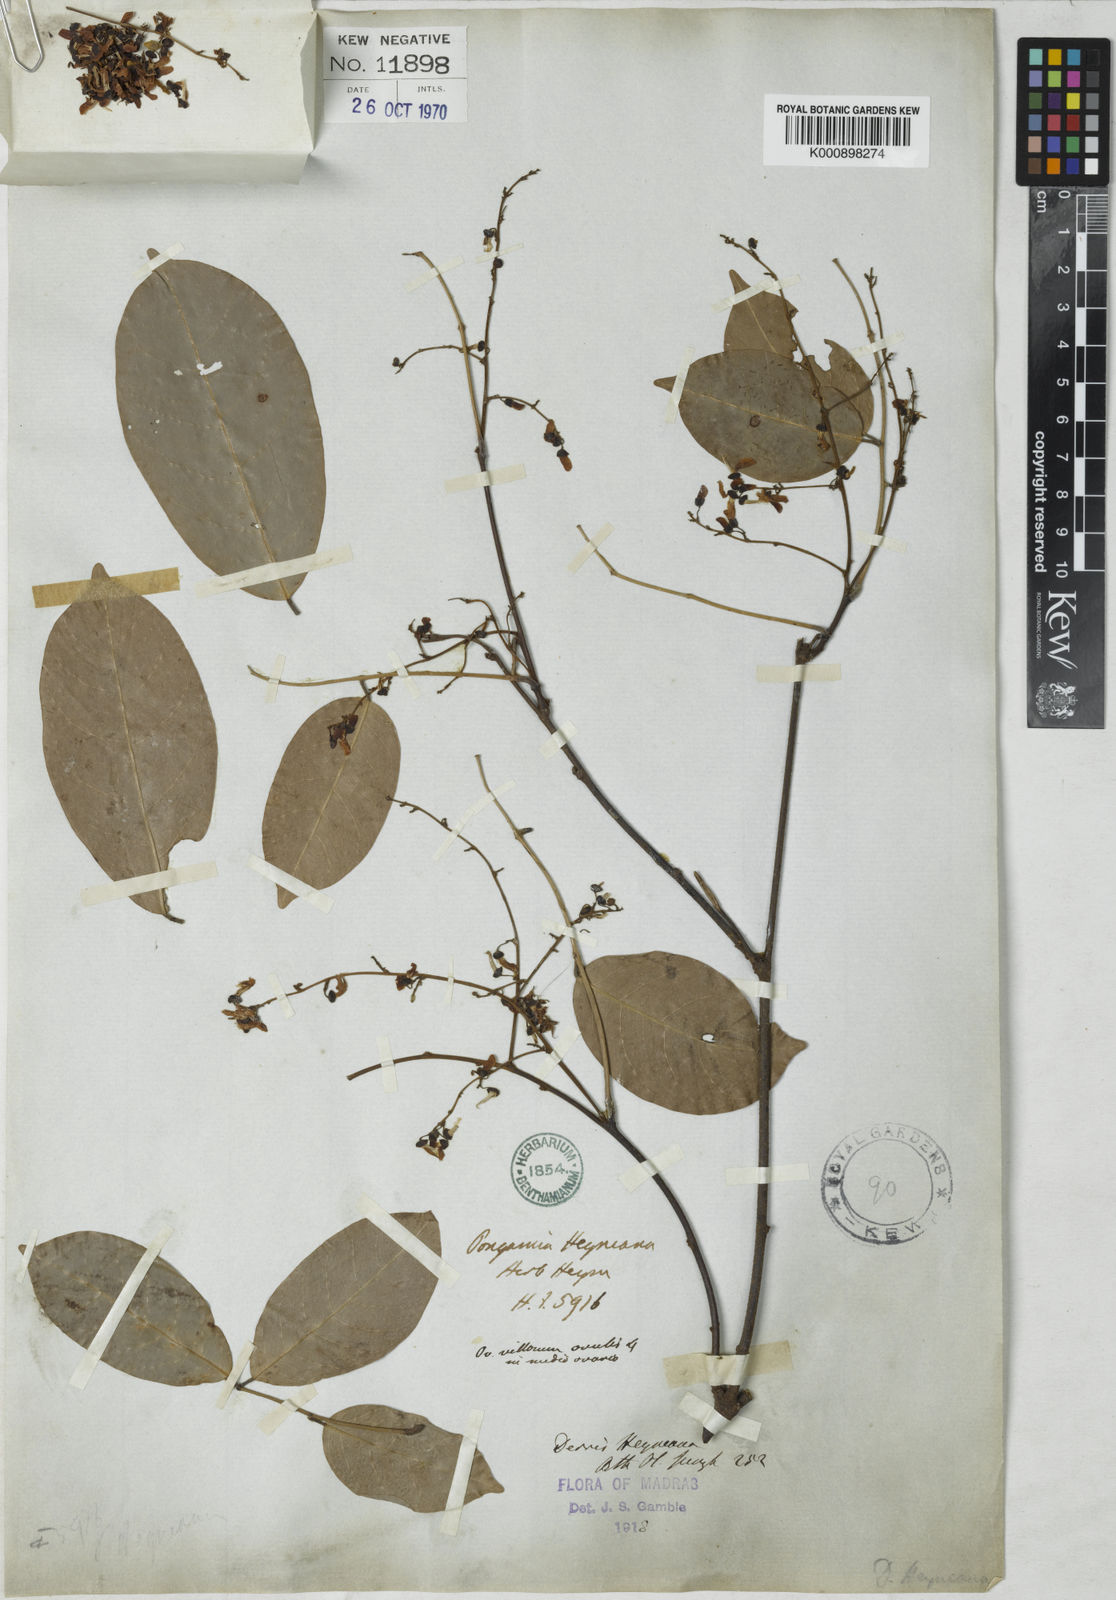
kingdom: Plantae
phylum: Tracheophyta
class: Magnoliopsida
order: Fabales
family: Fabaceae
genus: Derris
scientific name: Derris heyneana
